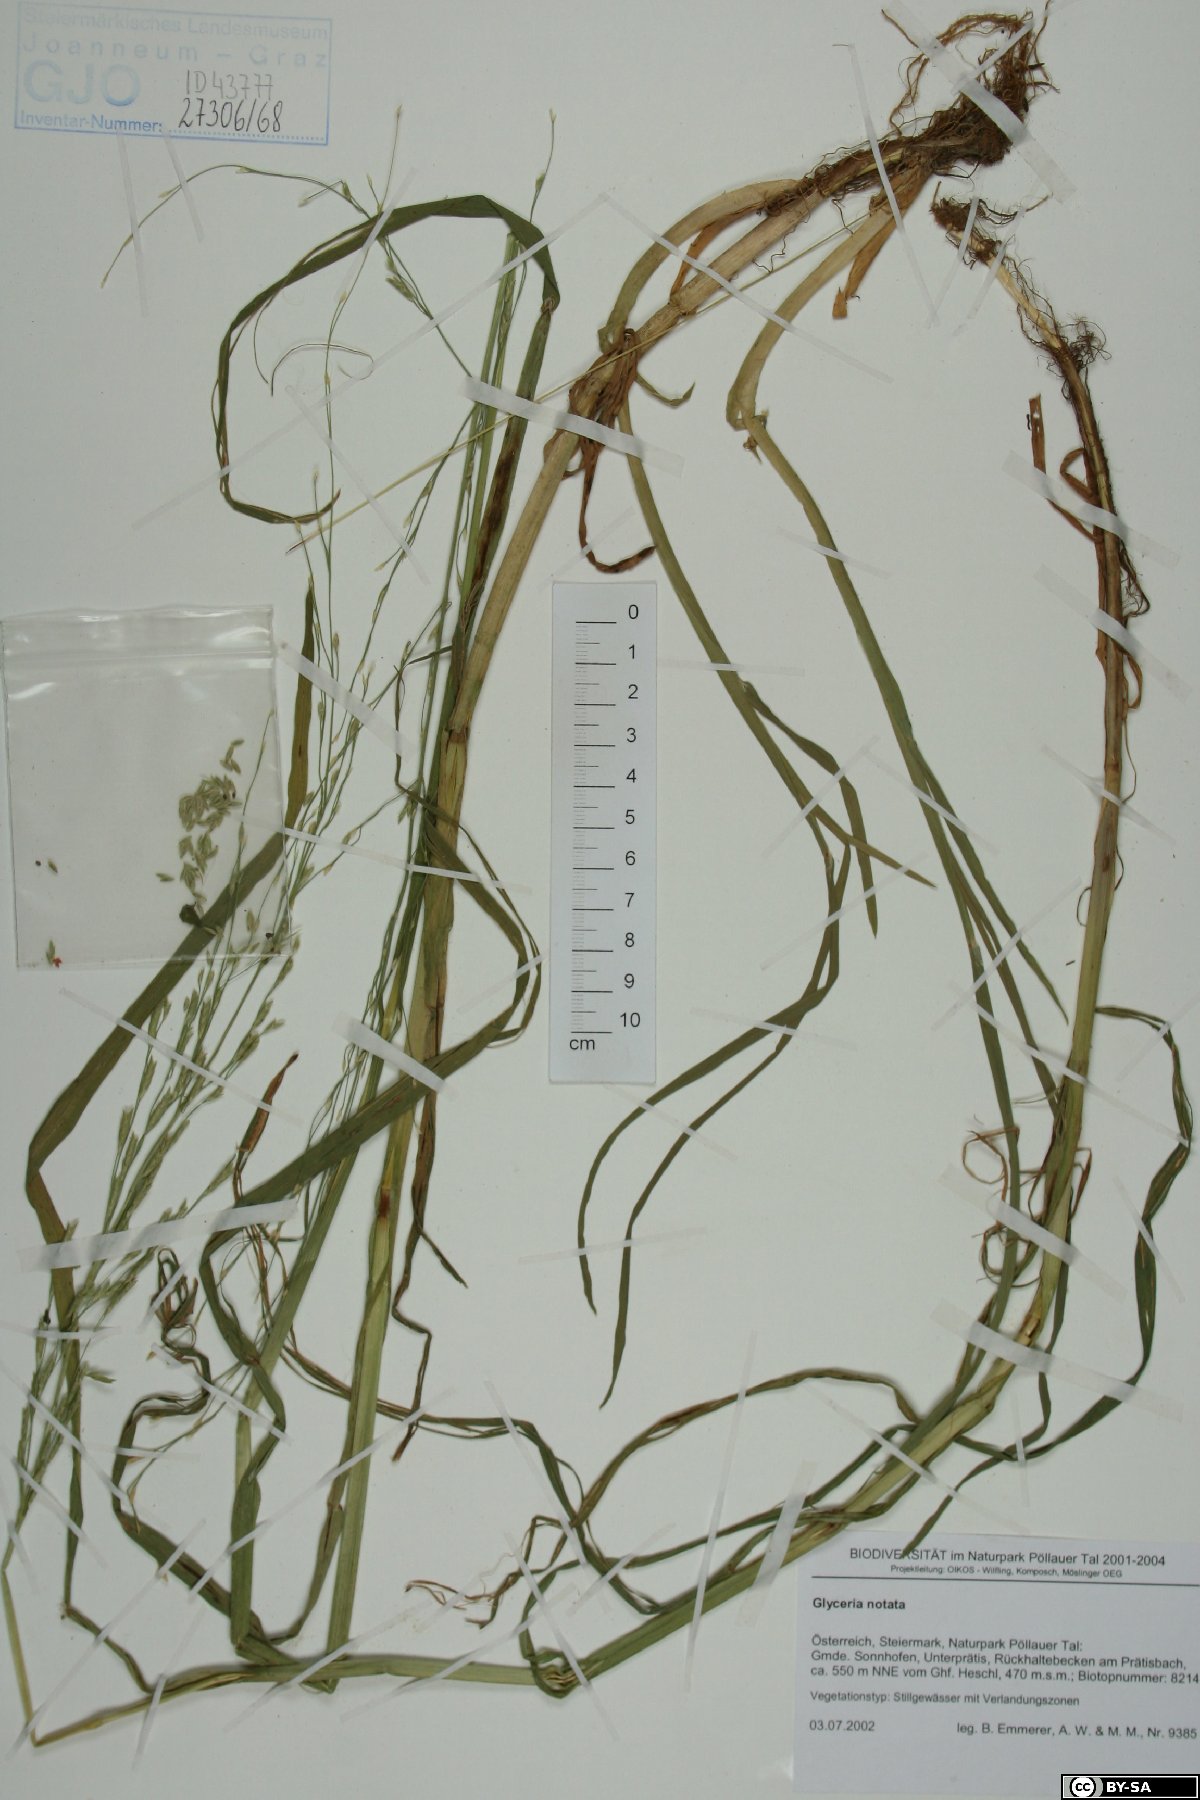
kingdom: Plantae
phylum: Tracheophyta
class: Liliopsida
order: Poales
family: Poaceae
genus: Glyceria
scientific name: Glyceria notata
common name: Plicate sweet-grass
